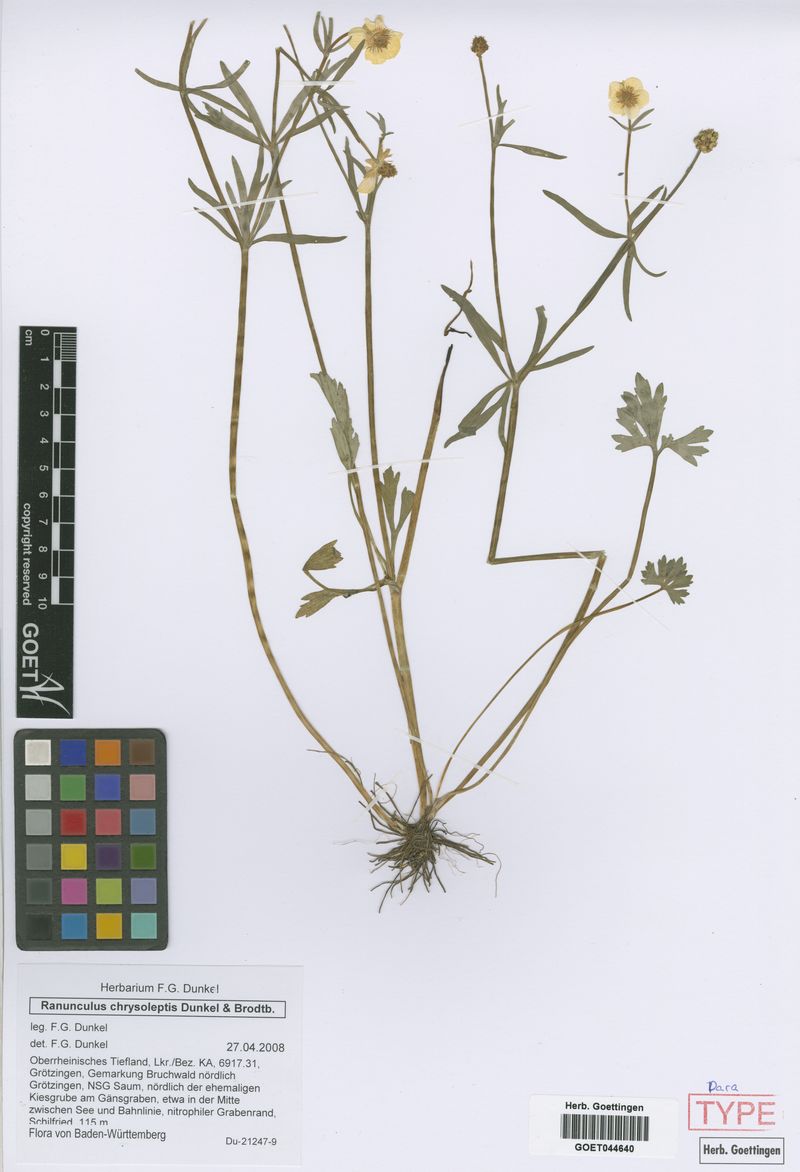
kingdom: Plantae
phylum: Tracheophyta
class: Magnoliopsida
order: Ranunculales
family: Ranunculaceae
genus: Ranunculus
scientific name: Ranunculus chrysoleptos
